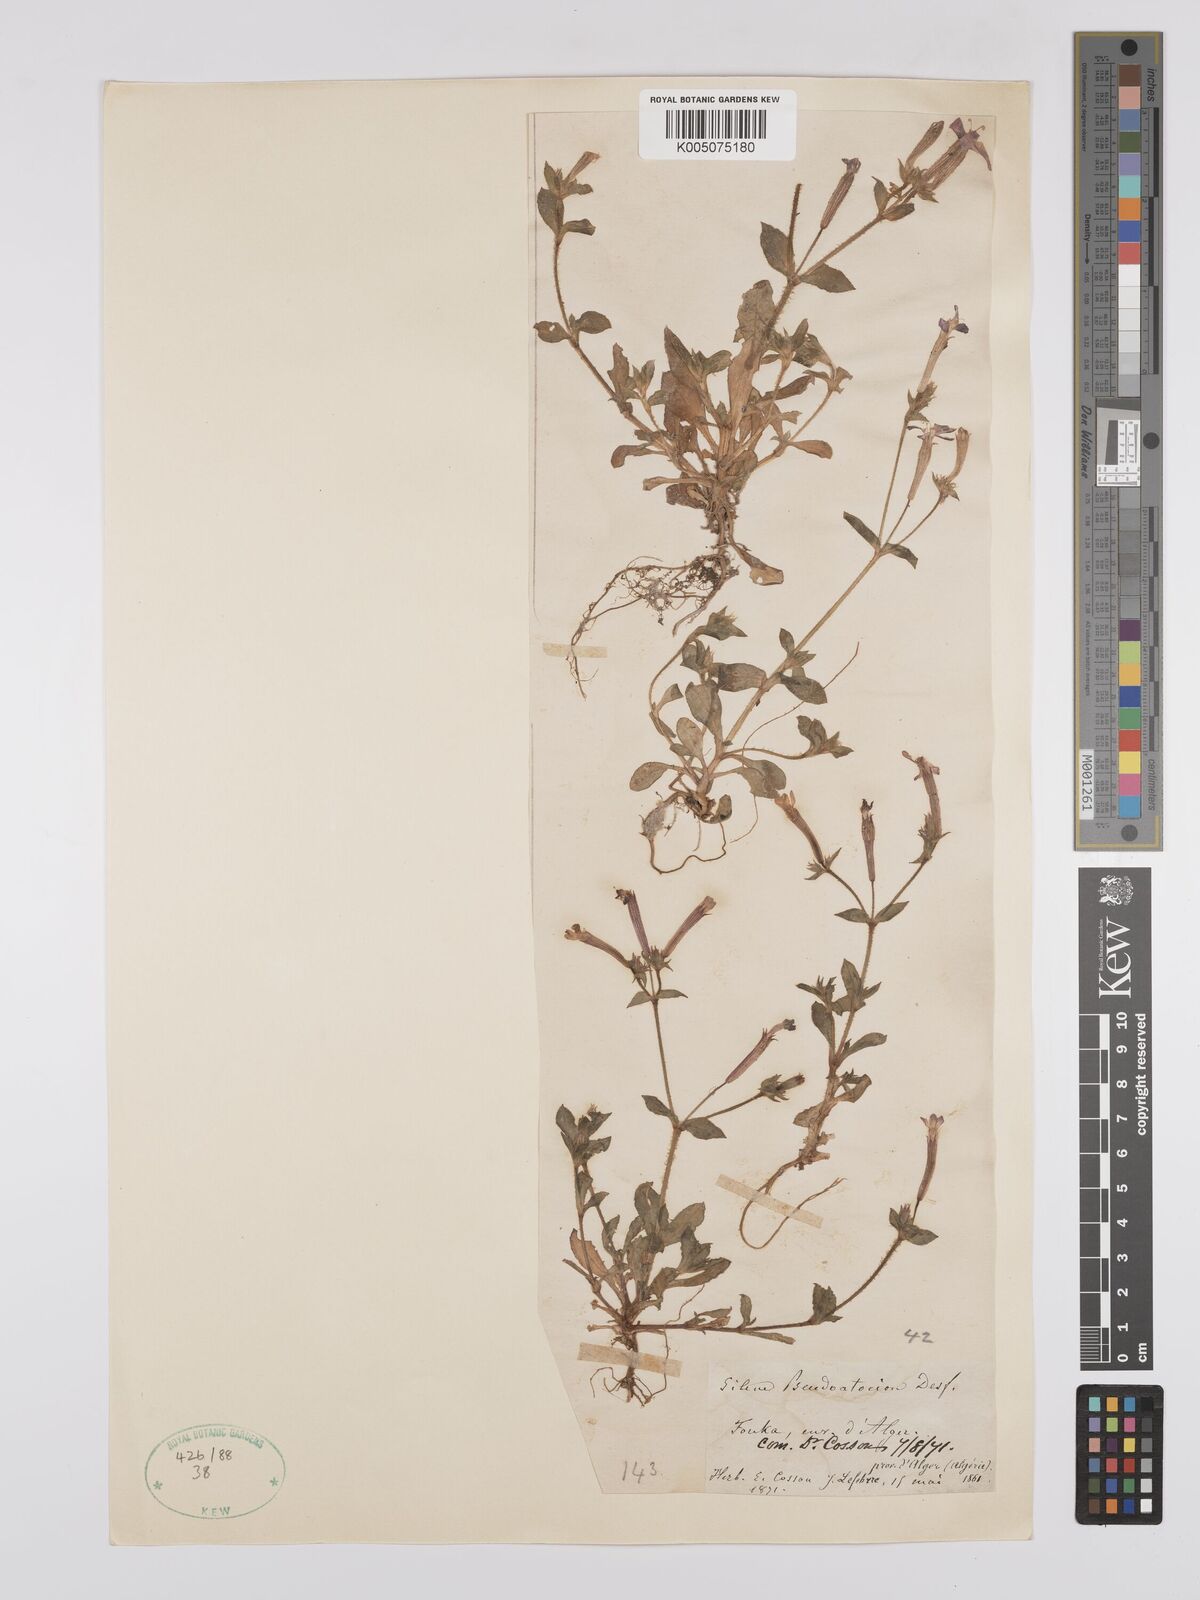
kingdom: Plantae
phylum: Tracheophyta
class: Magnoliopsida
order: Caryophyllales
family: Caryophyllaceae
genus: Silene
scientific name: Silene pseudoatocion
